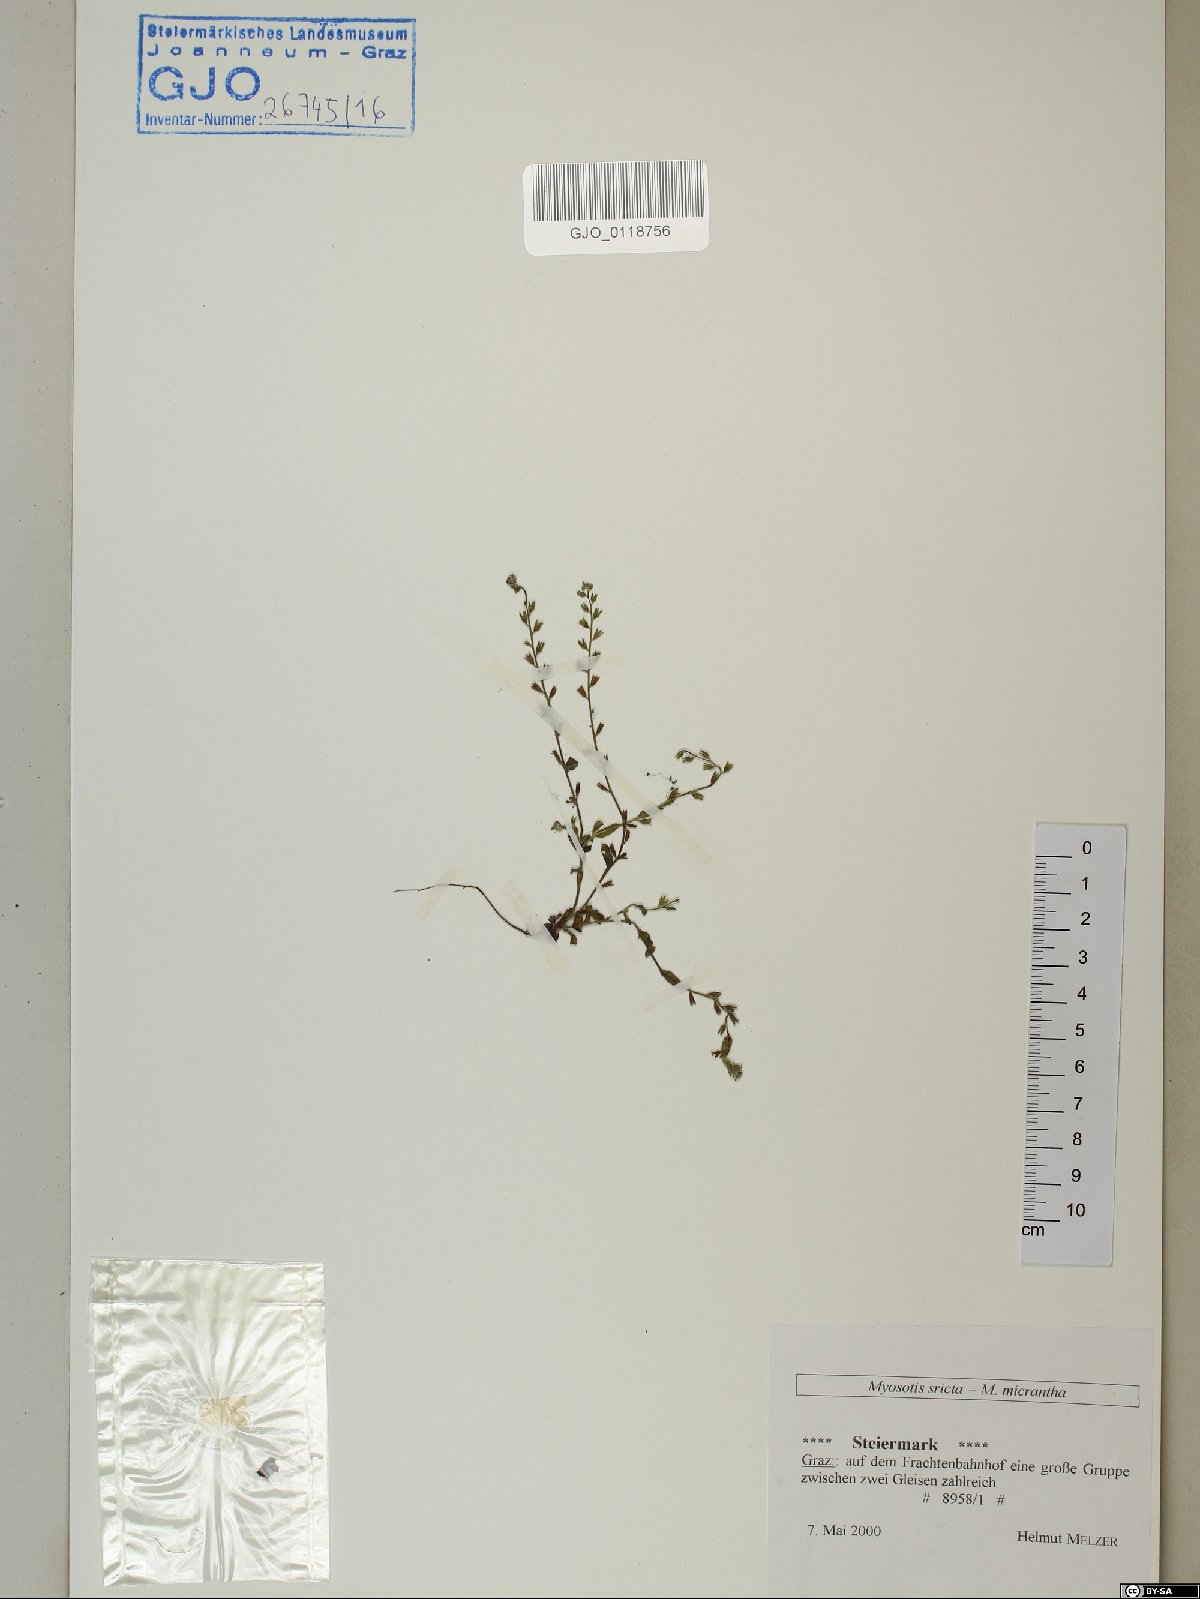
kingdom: Plantae
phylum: Tracheophyta
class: Magnoliopsida
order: Boraginales
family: Boraginaceae
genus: Myosotis
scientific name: Myosotis stricta
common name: Strict forget-me-not
